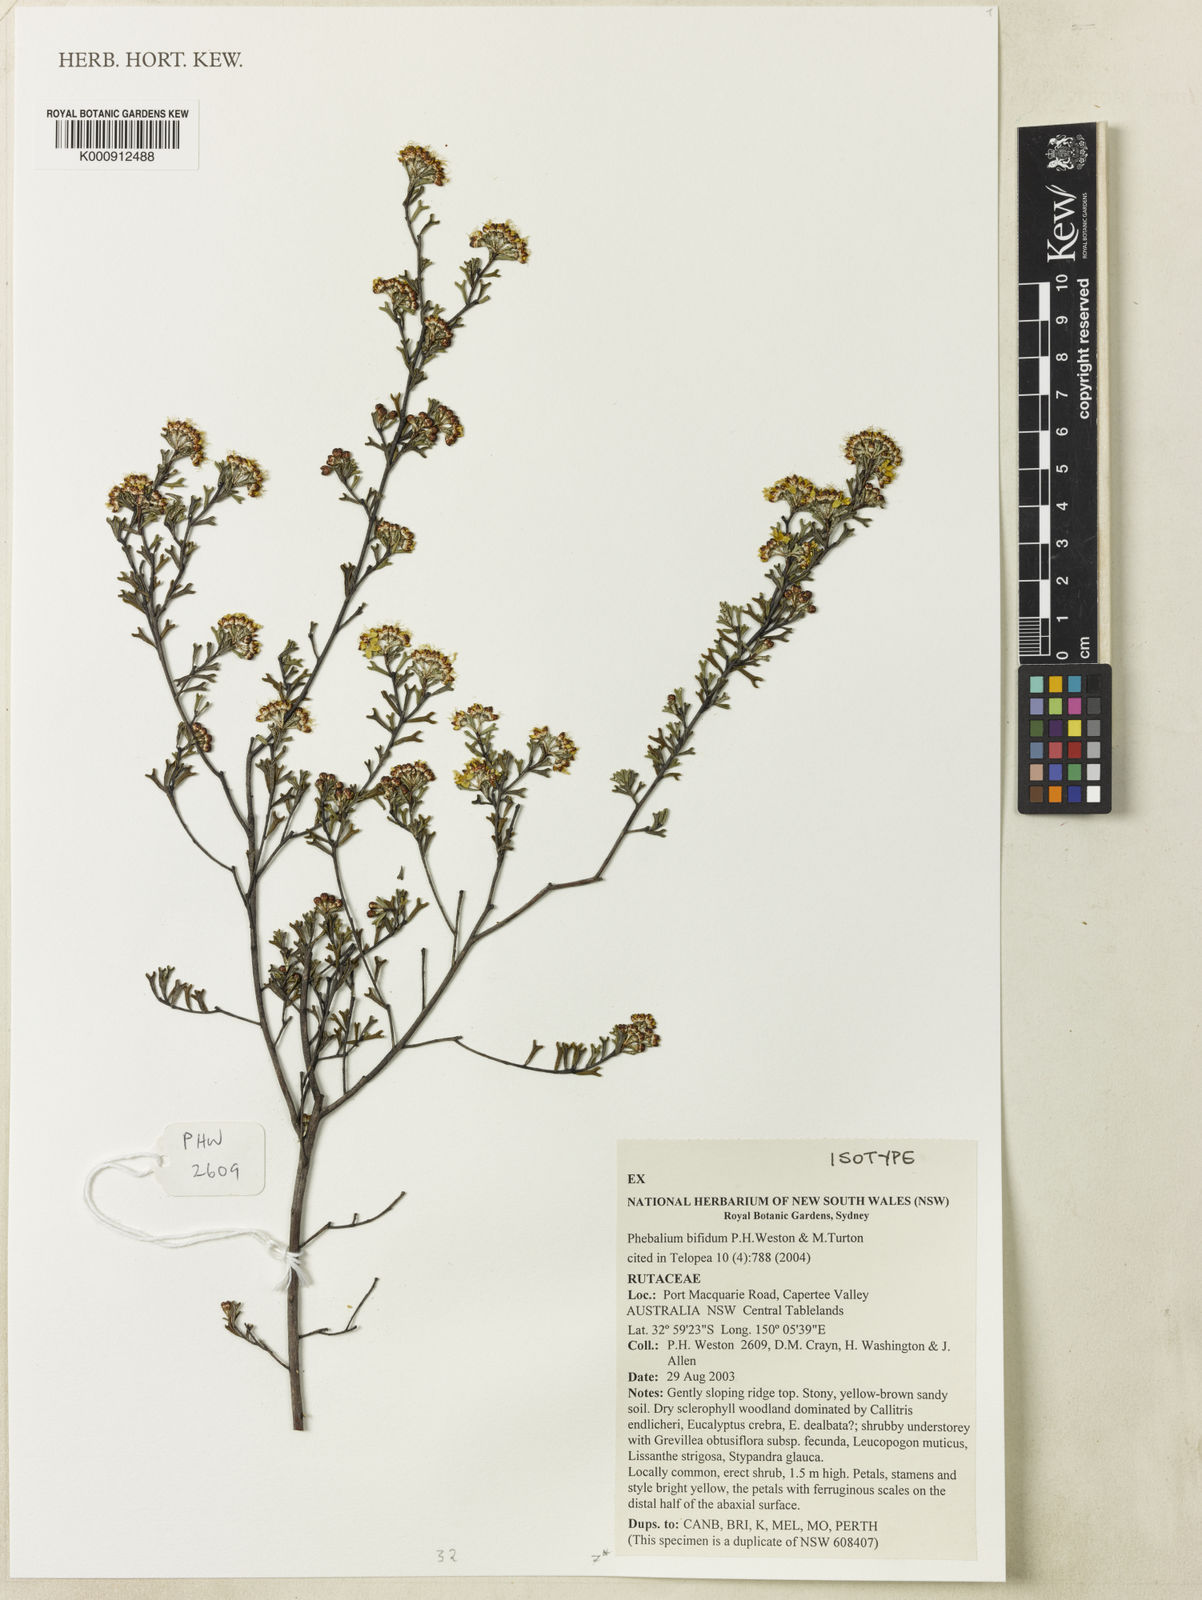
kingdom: Plantae
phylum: Tracheophyta
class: Magnoliopsida
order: Sapindales
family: Rutaceae
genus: Phebalium
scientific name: Phebalium bifidum
